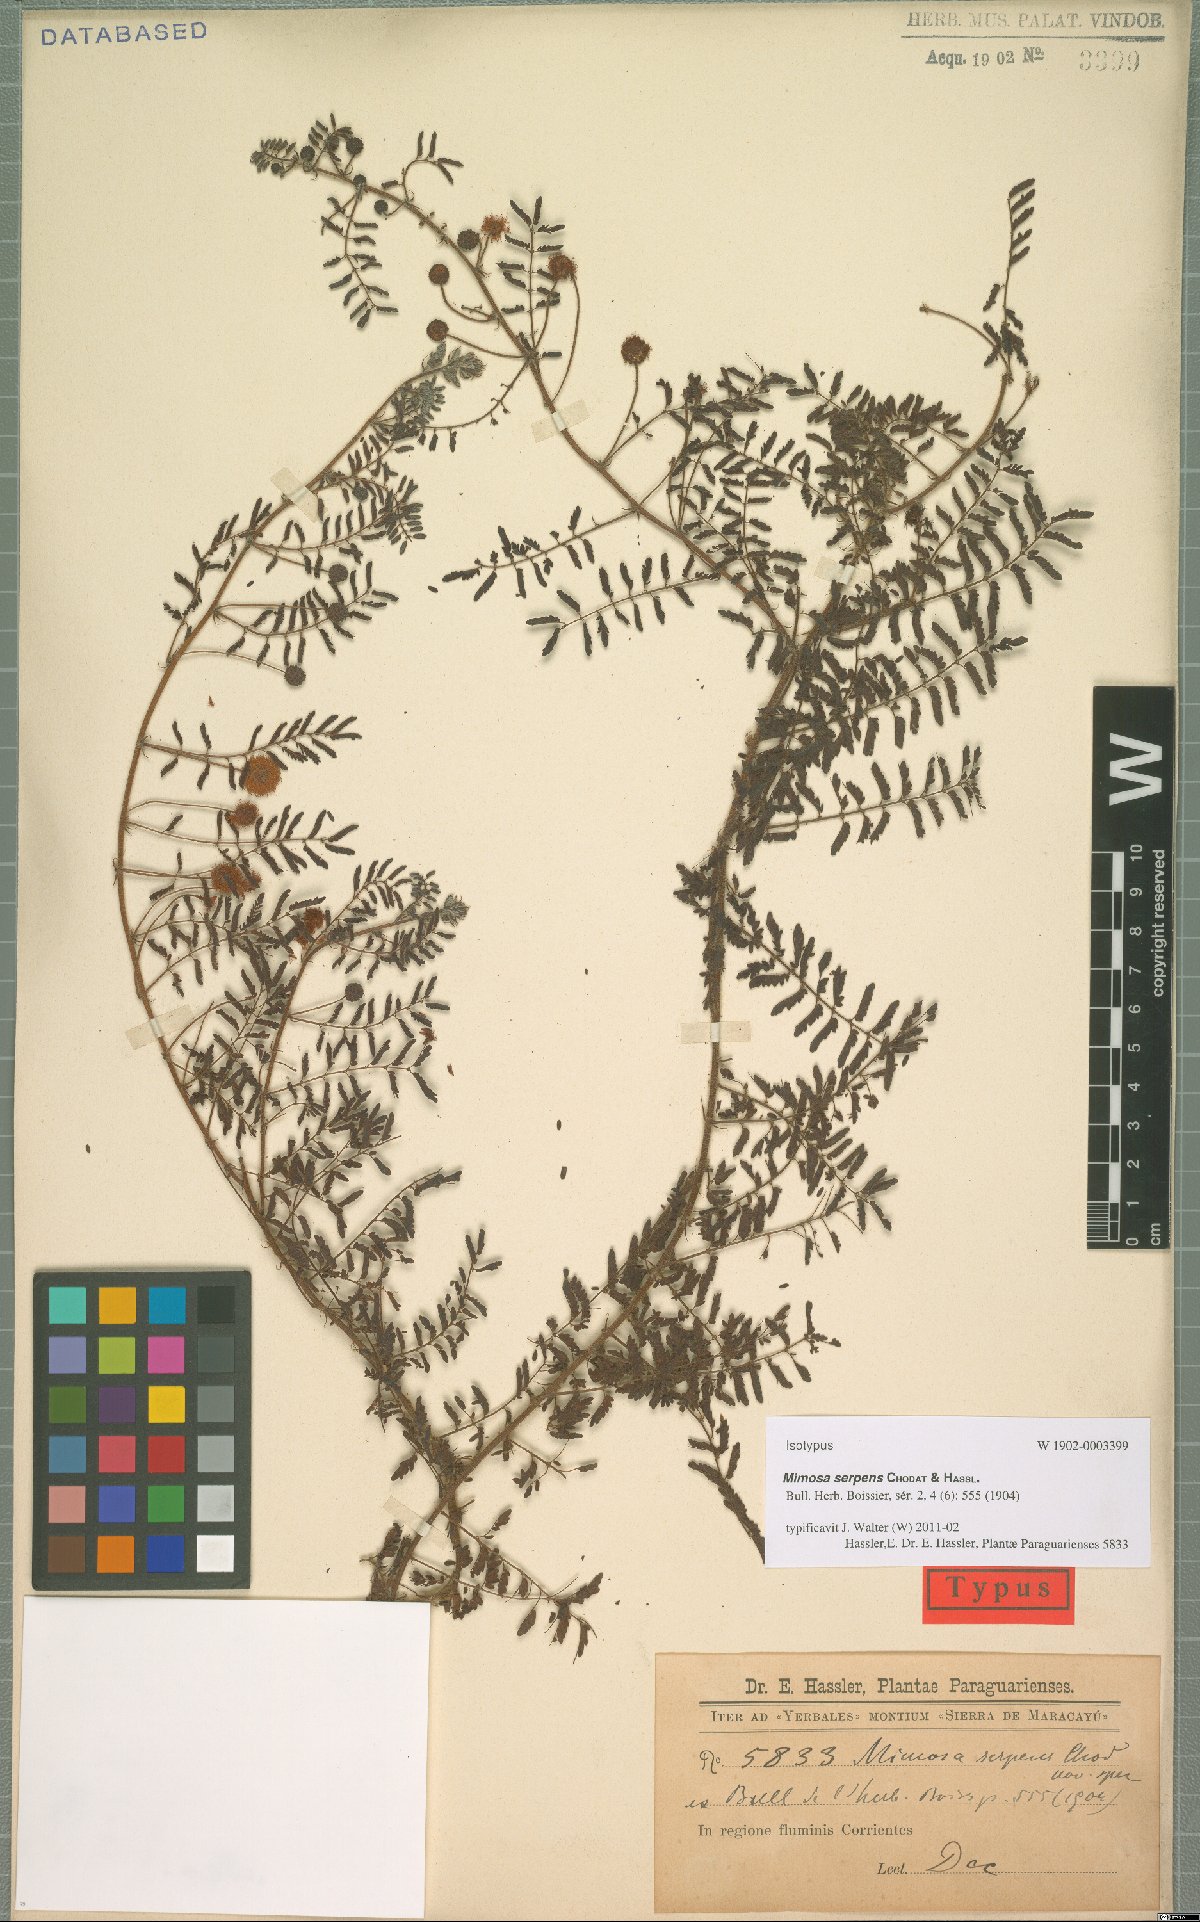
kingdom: Plantae
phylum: Tracheophyta
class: Magnoliopsida
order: Fabales
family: Fabaceae
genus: Mimosa
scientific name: Mimosa gracilis
